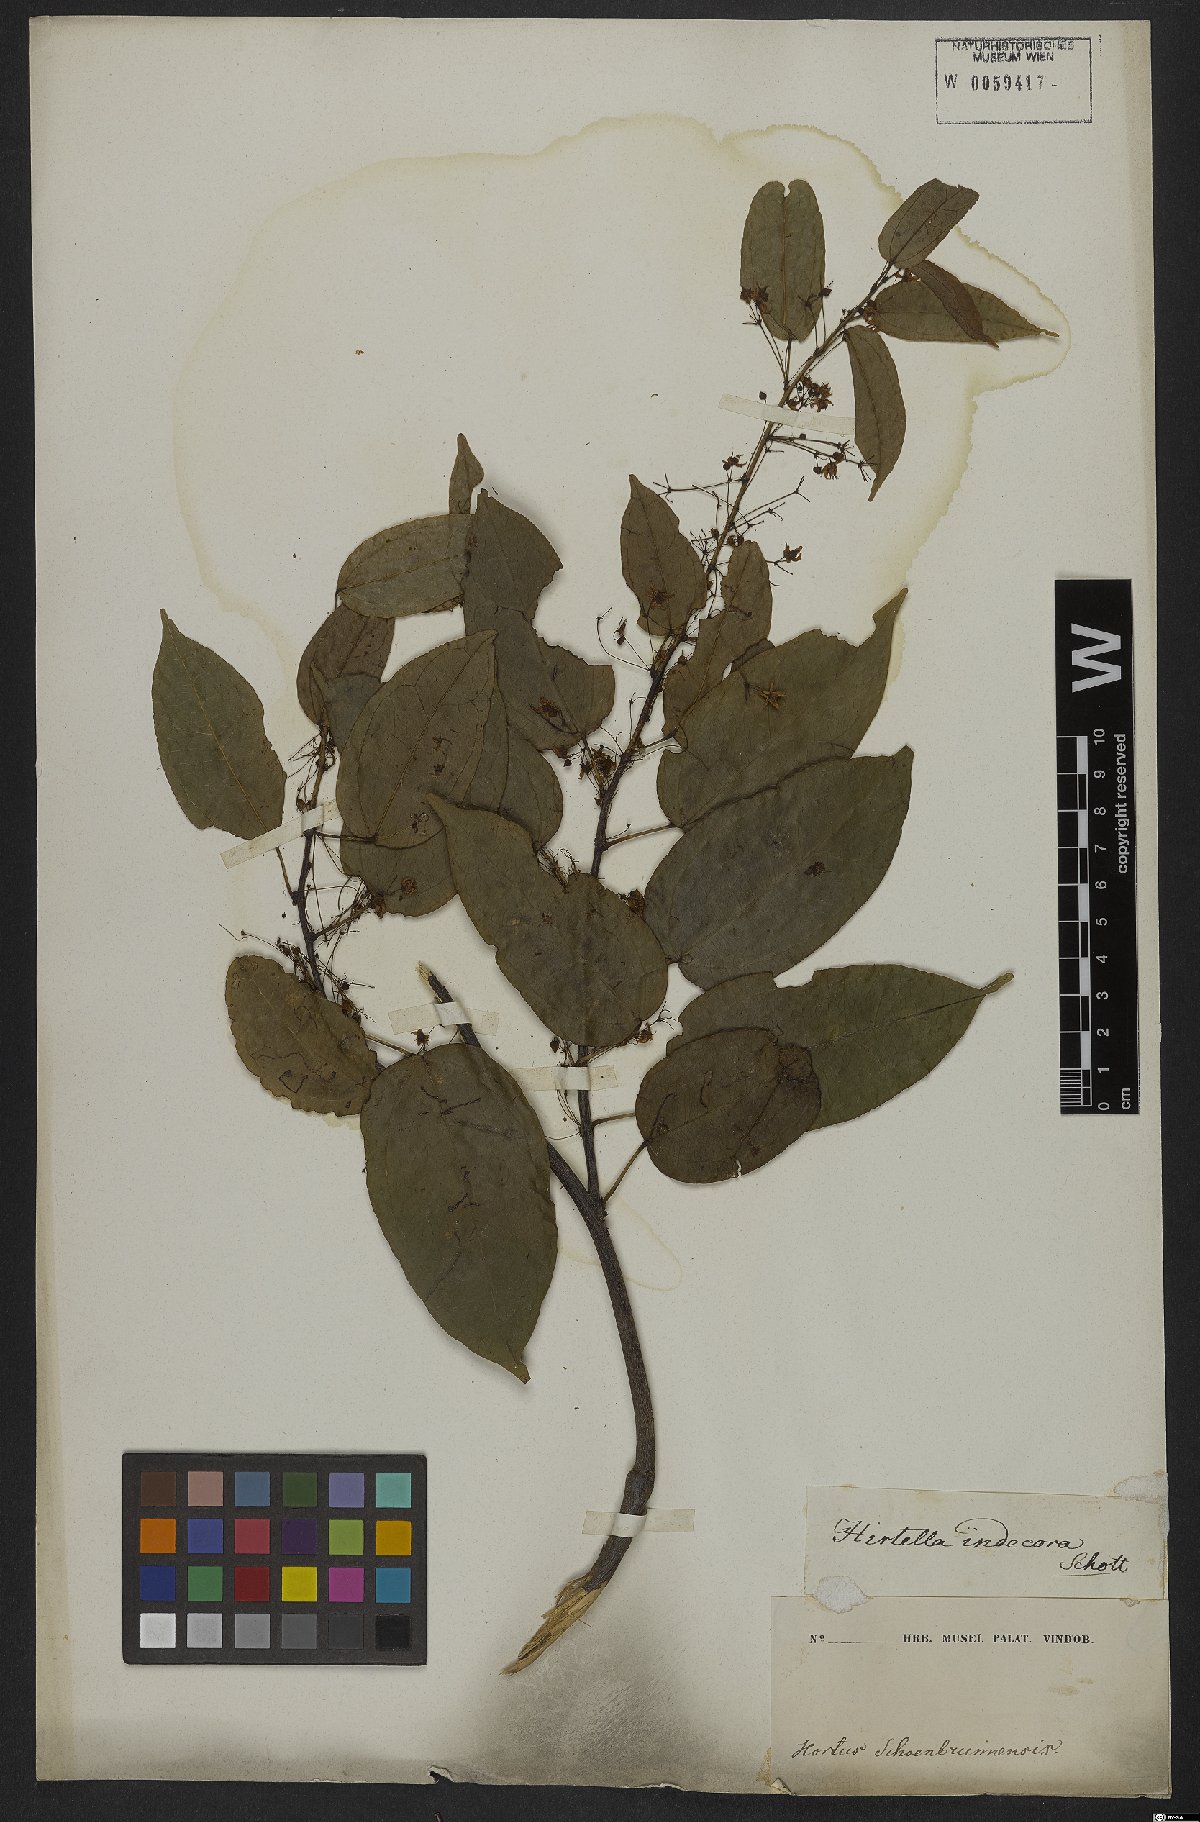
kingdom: Plantae
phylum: Tracheophyta
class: Magnoliopsida
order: Malpighiales
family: Chrysobalanaceae
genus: Hirtella
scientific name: Hirtella paniculata
